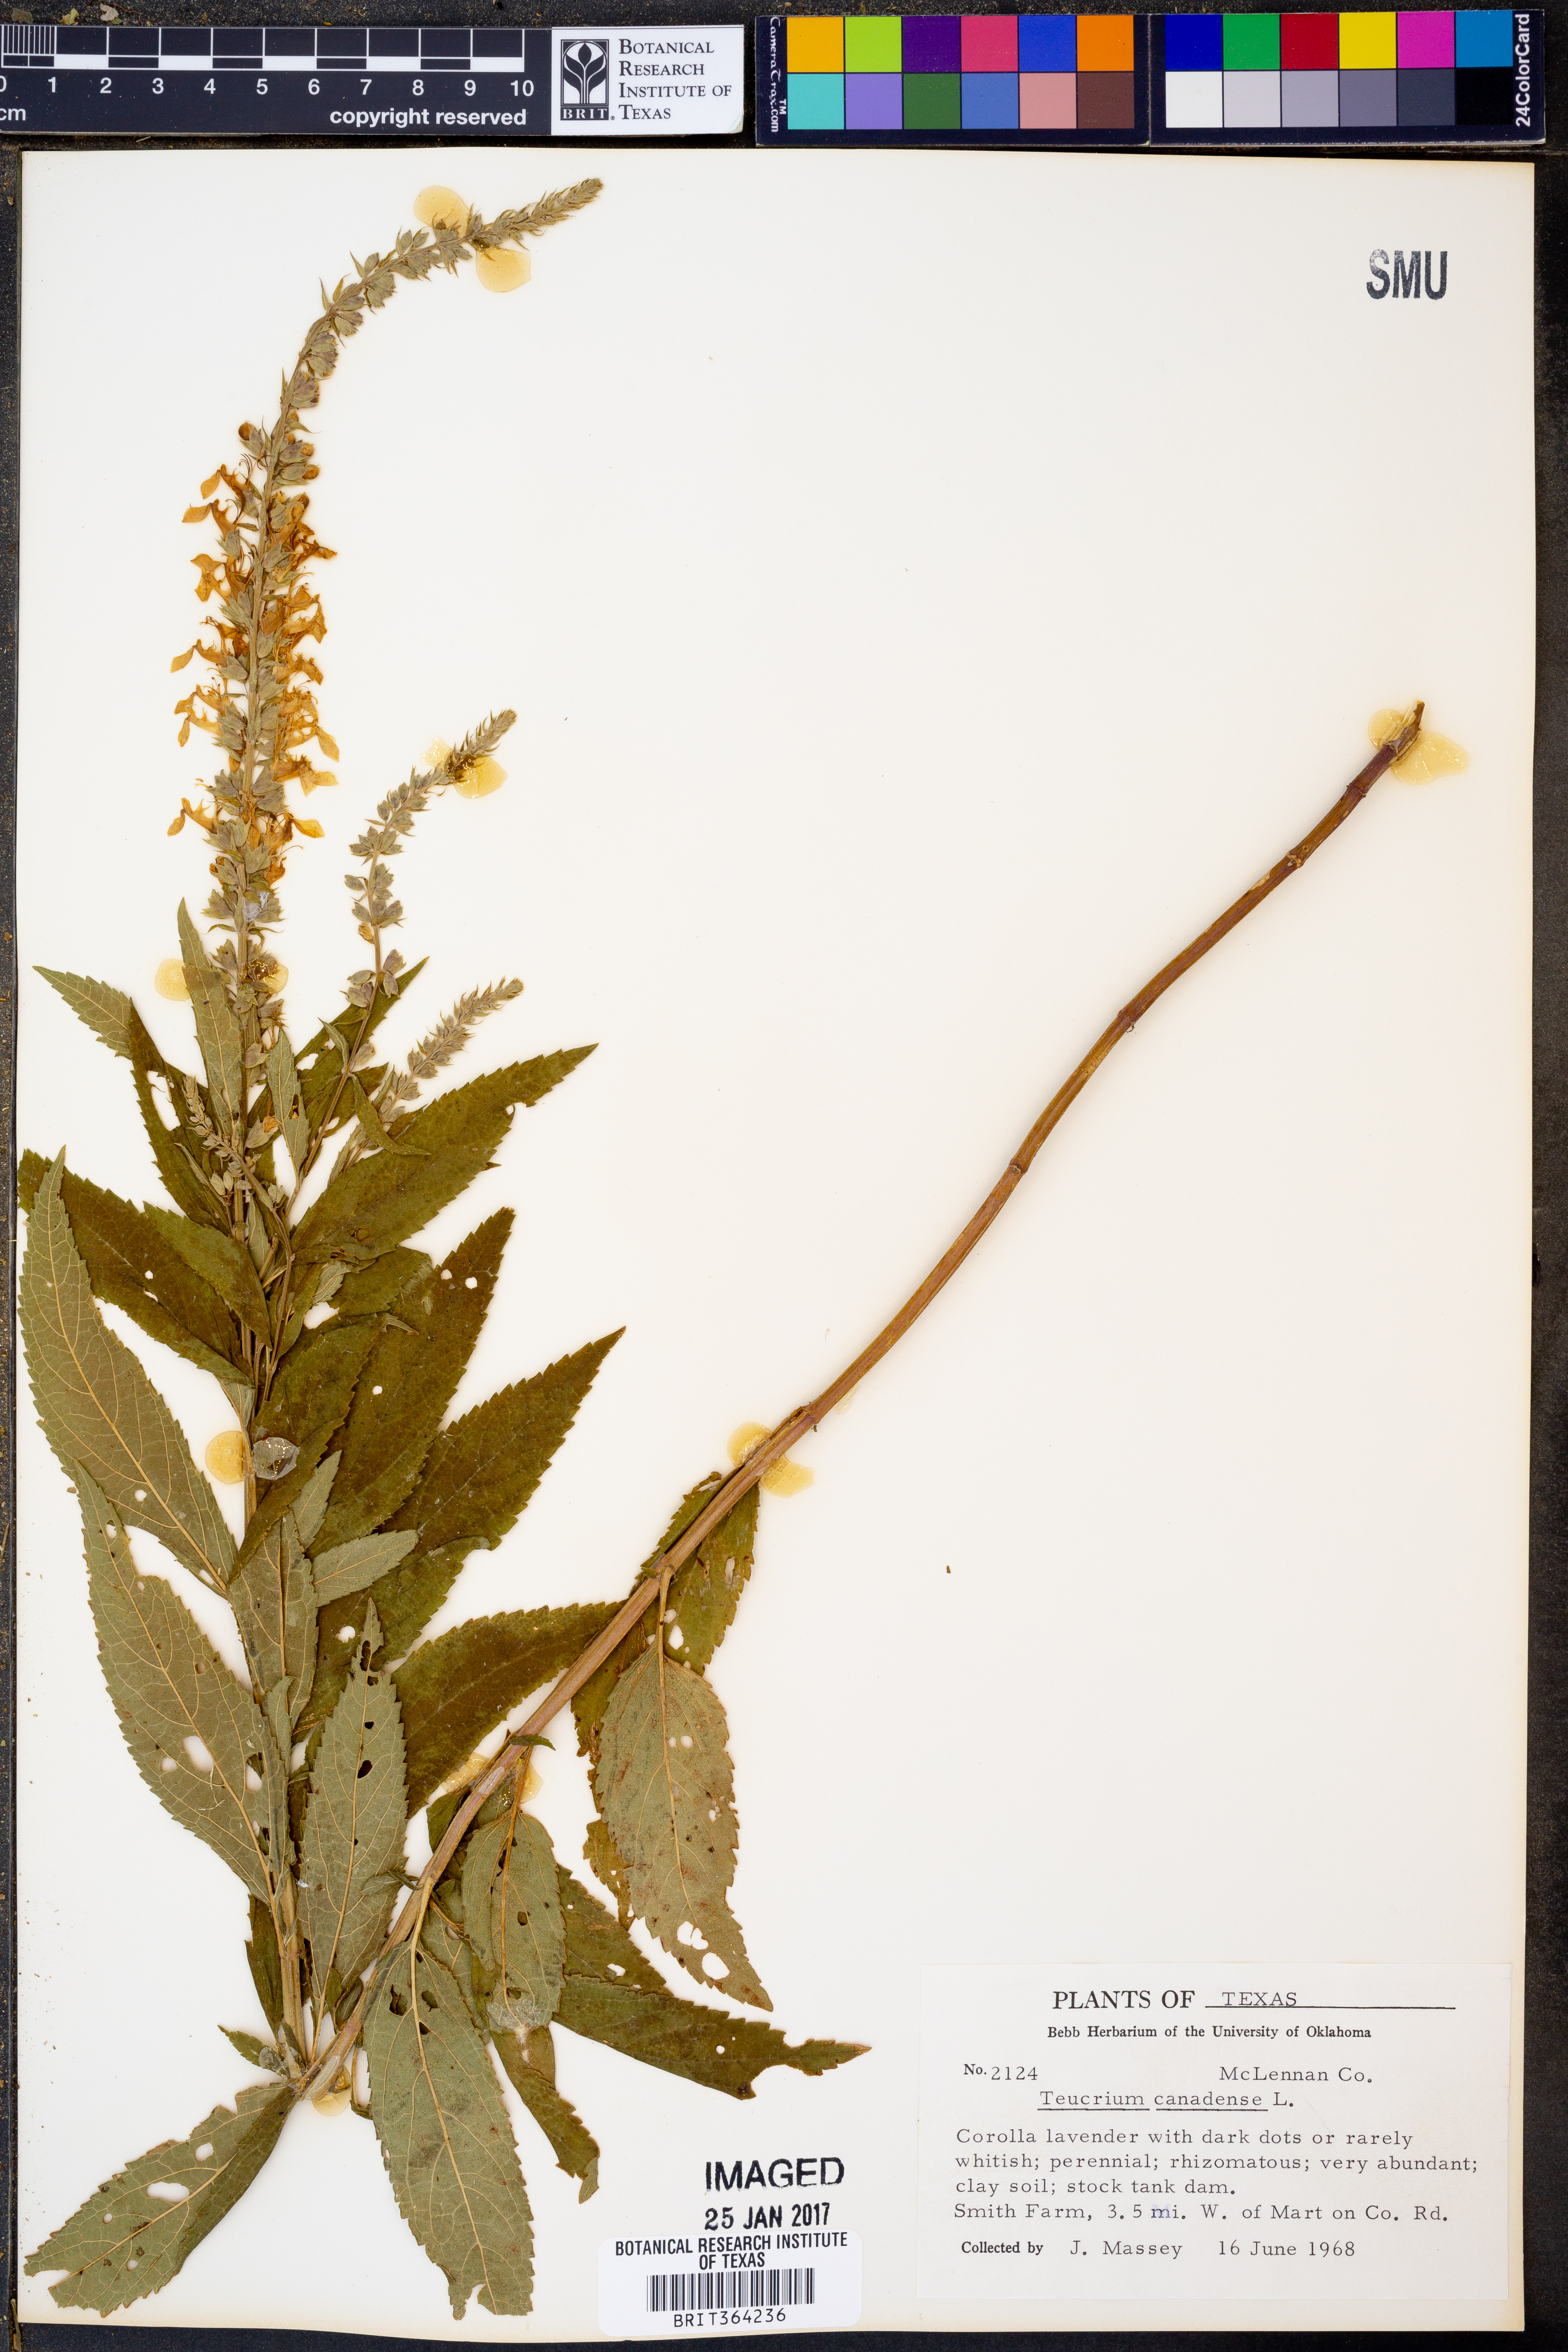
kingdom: Plantae
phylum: Tracheophyta
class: Magnoliopsida
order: Lamiales
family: Lamiaceae
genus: Teucrium
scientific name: Teucrium canadense
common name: American germander
